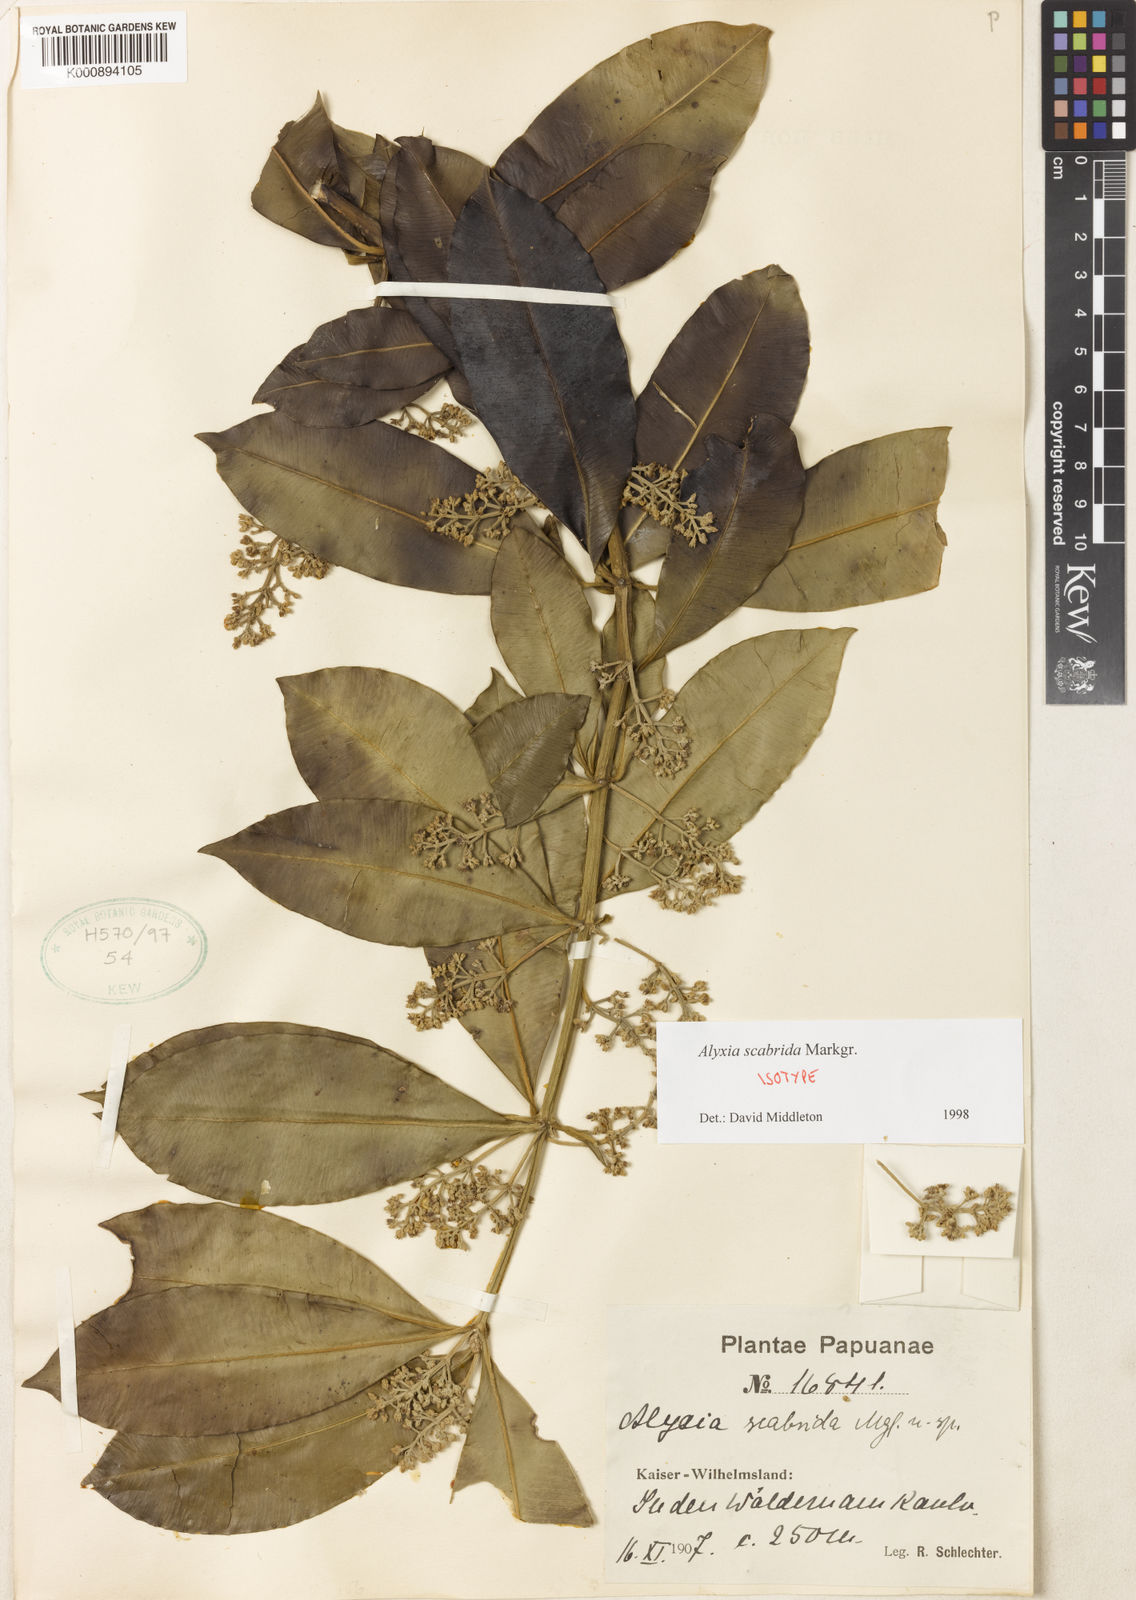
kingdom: Plantae
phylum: Tracheophyta
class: Magnoliopsida
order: Gentianales
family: Apocynaceae
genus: Alyxia
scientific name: Alyxia scabrida
